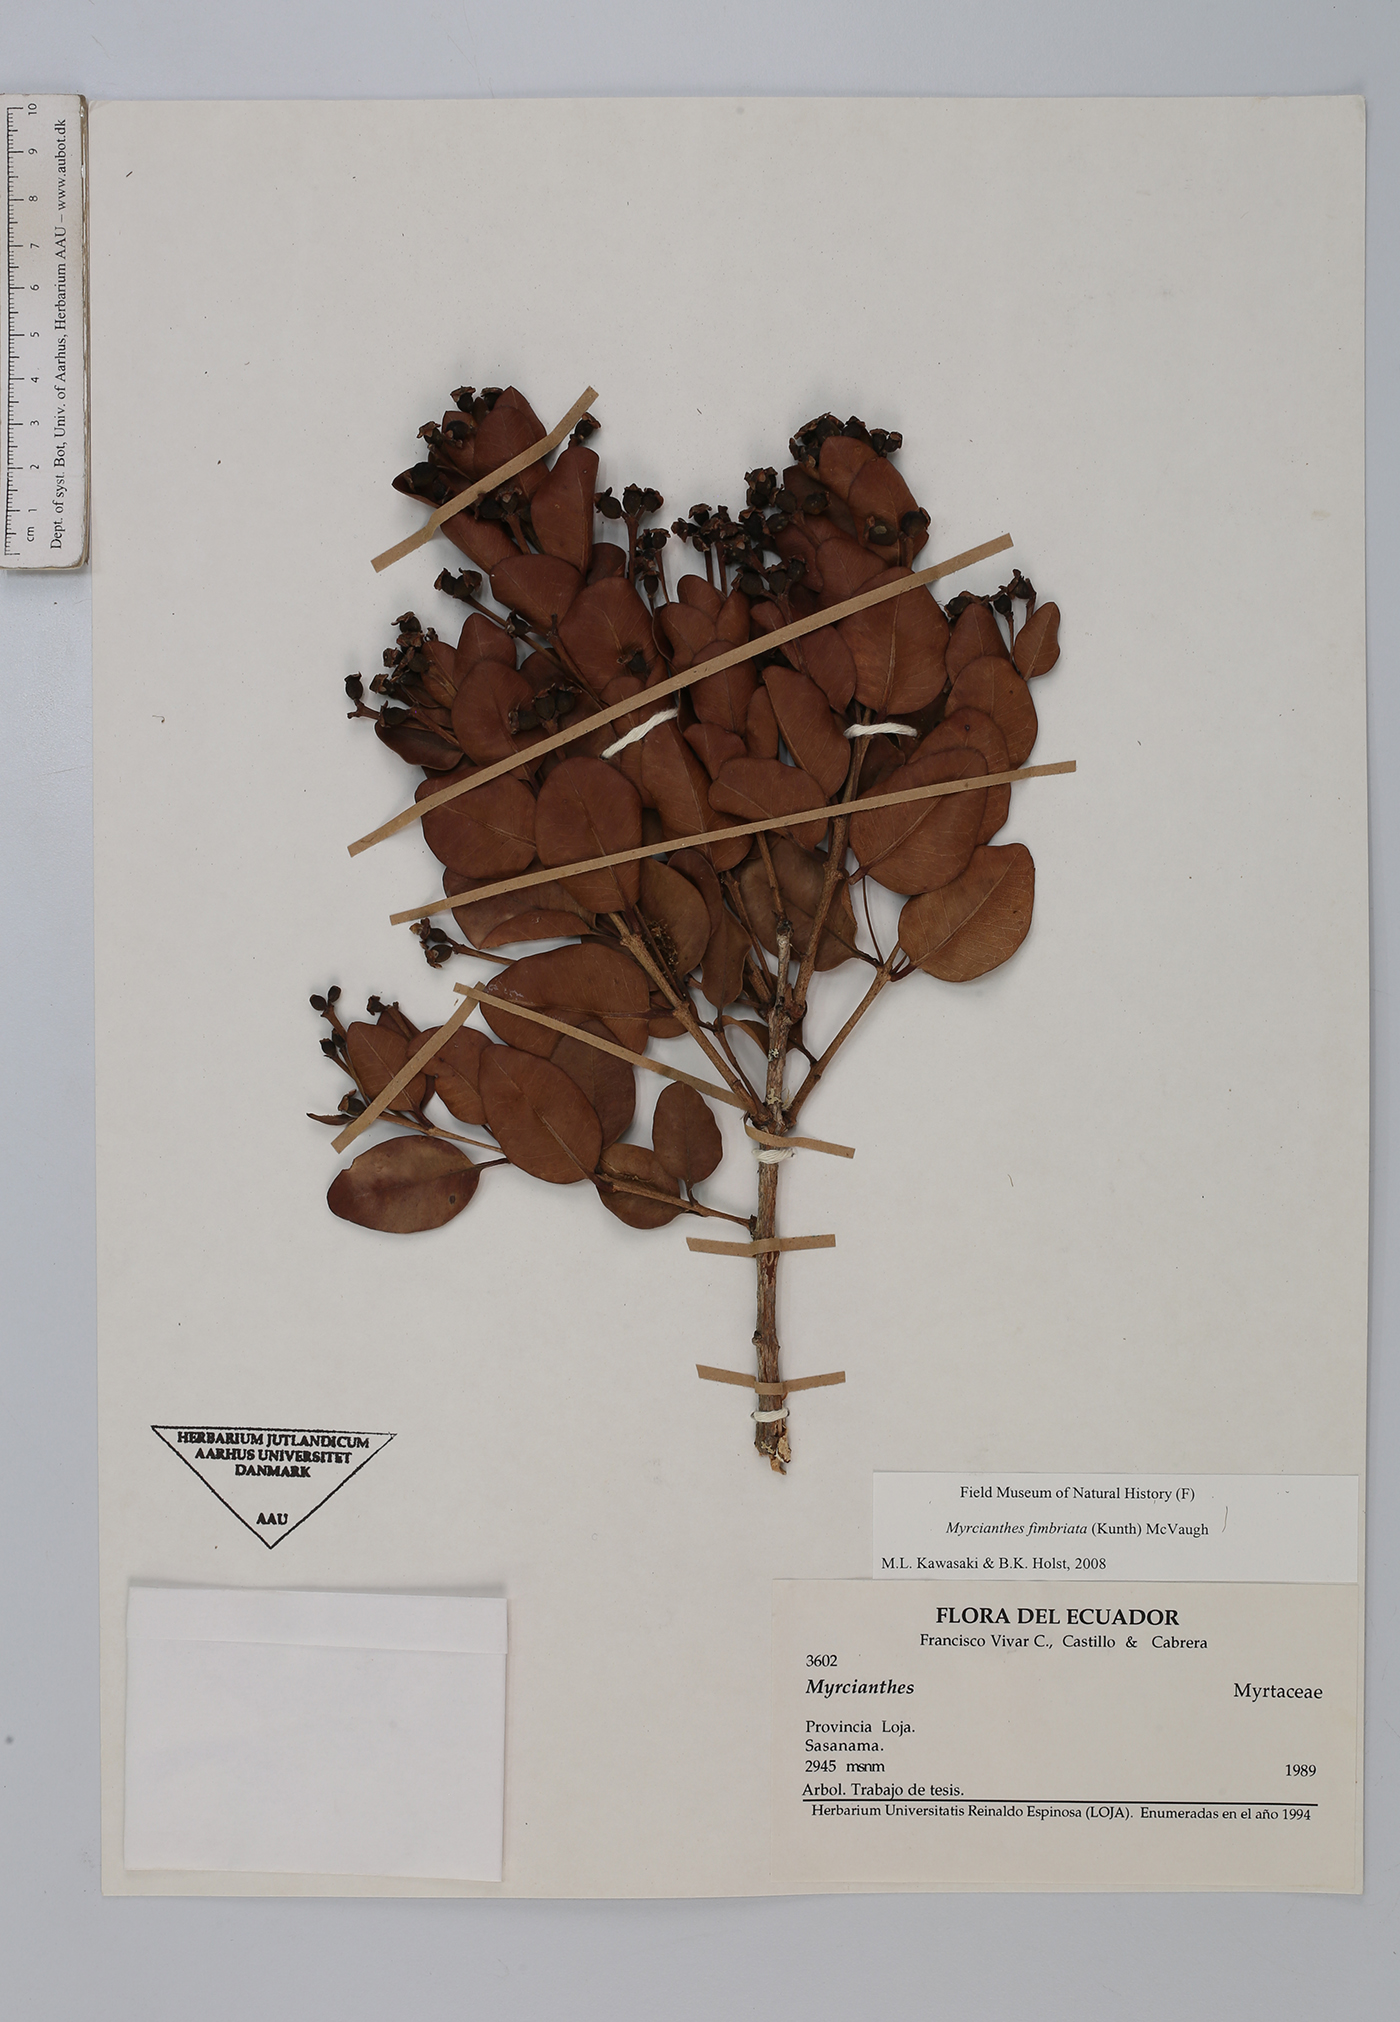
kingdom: Plantae
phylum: Tracheophyta
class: Magnoliopsida
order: Myrtales
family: Myrtaceae
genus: Myrcianthes
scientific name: Myrcianthes fimbriata
